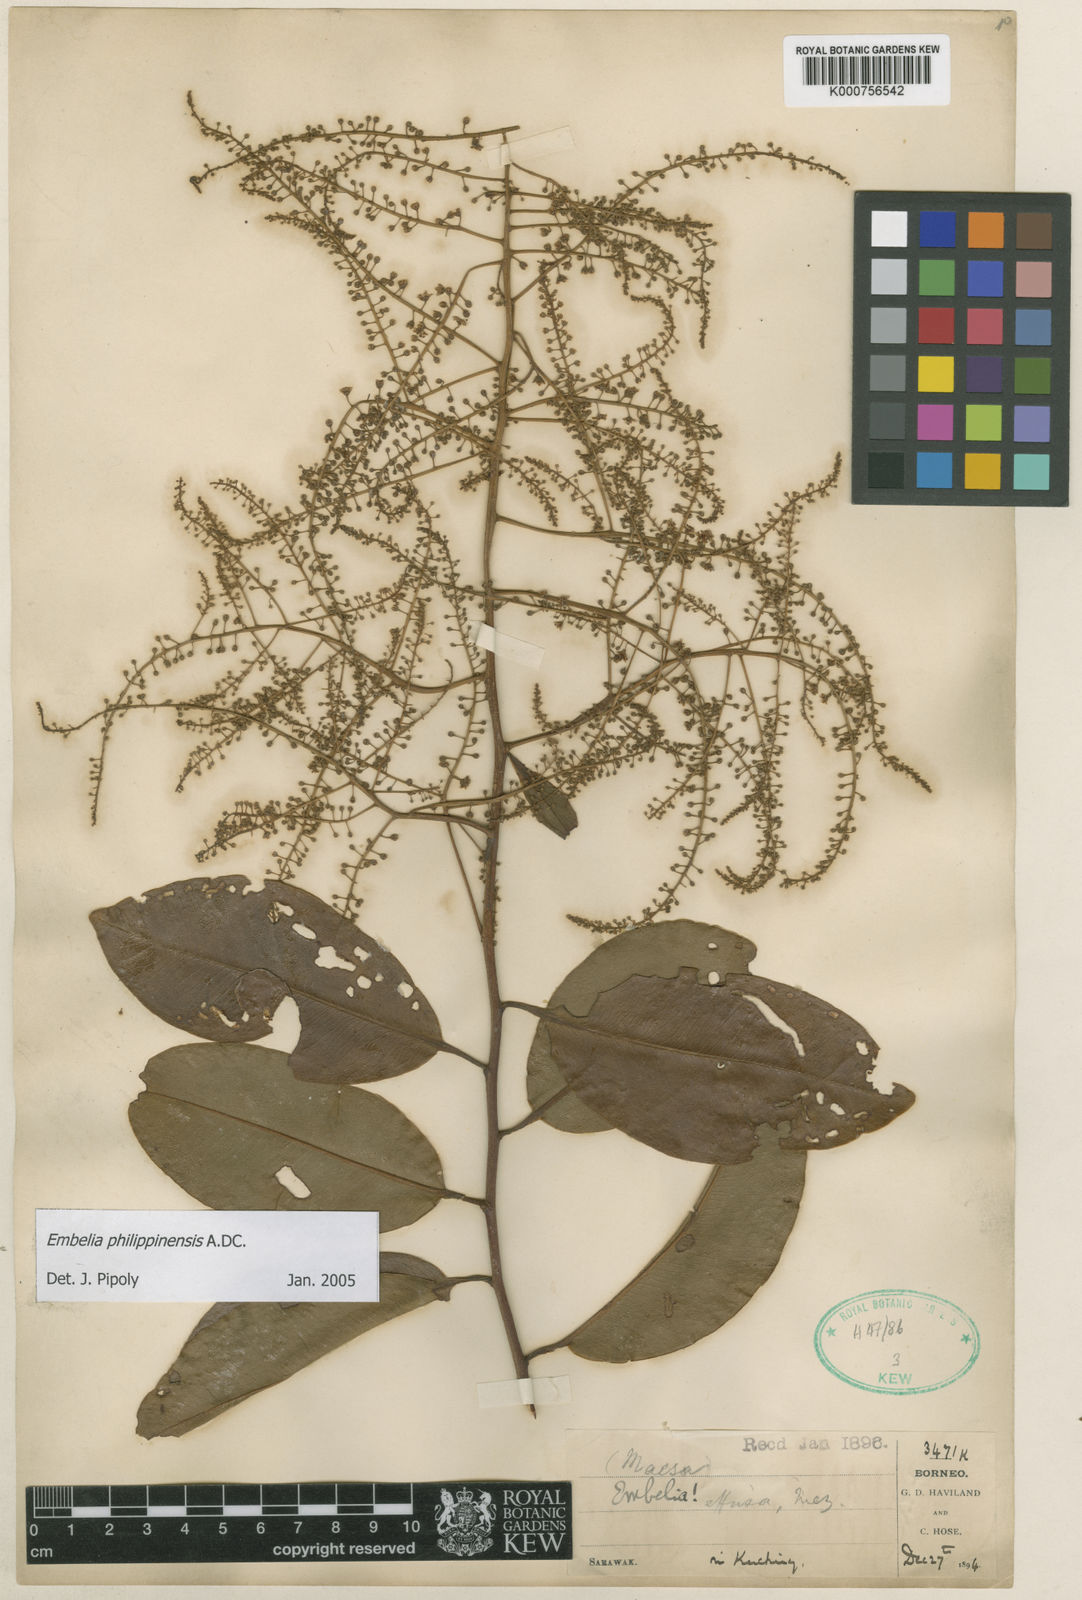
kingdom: Plantae
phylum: Tracheophyta
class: Magnoliopsida
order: Ericales
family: Primulaceae
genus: Embelia
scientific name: Embelia effusa
